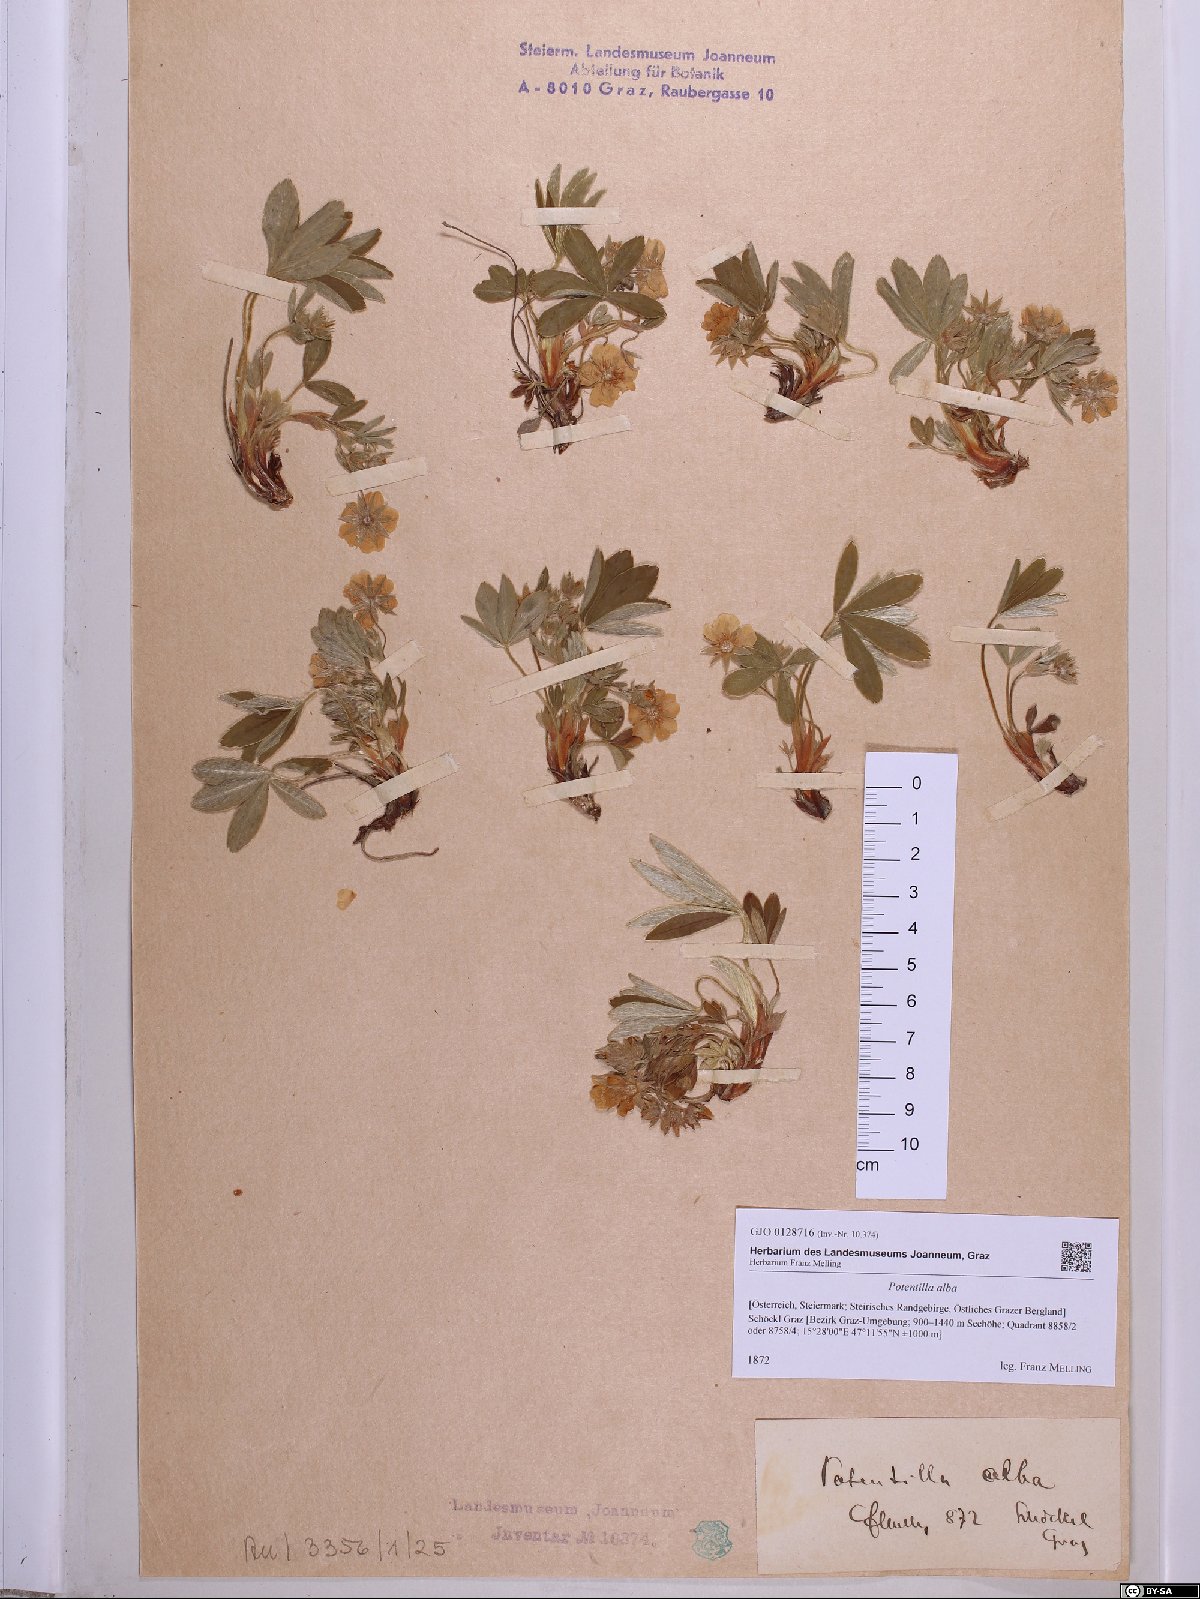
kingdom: Plantae
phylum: Tracheophyta
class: Magnoliopsida
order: Rosales
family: Rosaceae
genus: Potentilla
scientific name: Potentilla alba
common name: White cinquefoil
